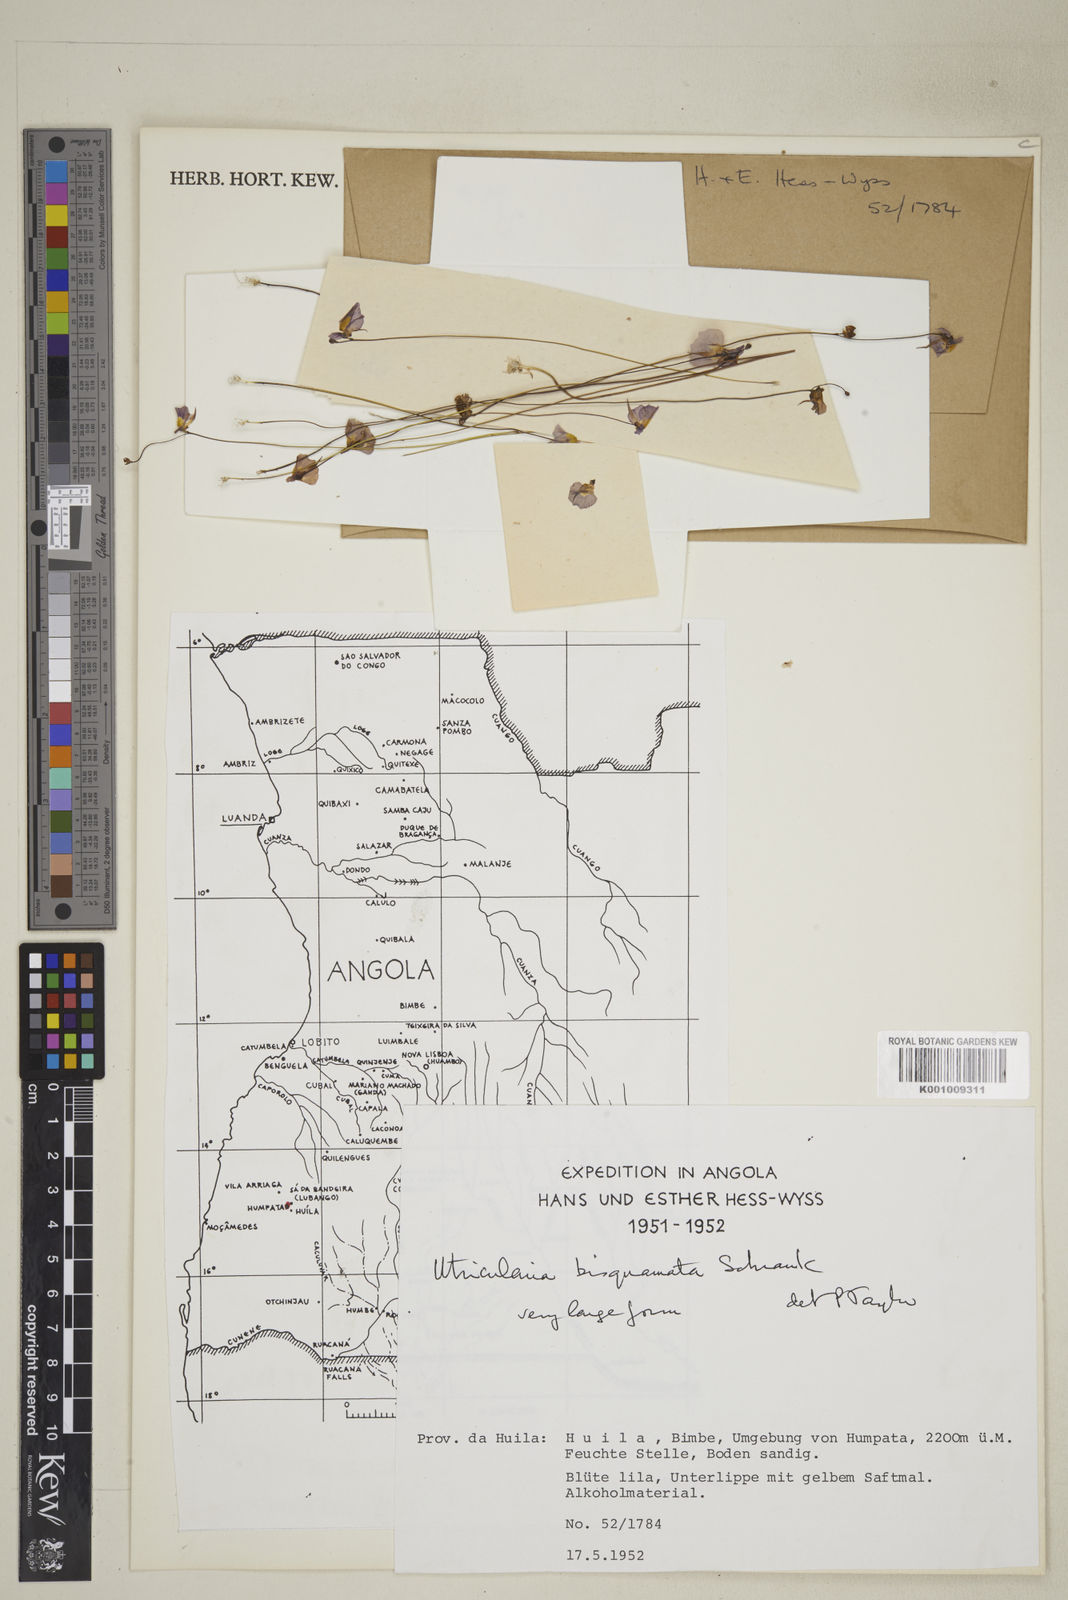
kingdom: Plantae
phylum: Tracheophyta
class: Magnoliopsida
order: Lamiales
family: Lentibulariaceae
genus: Utricularia
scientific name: Utricularia bisquamata
